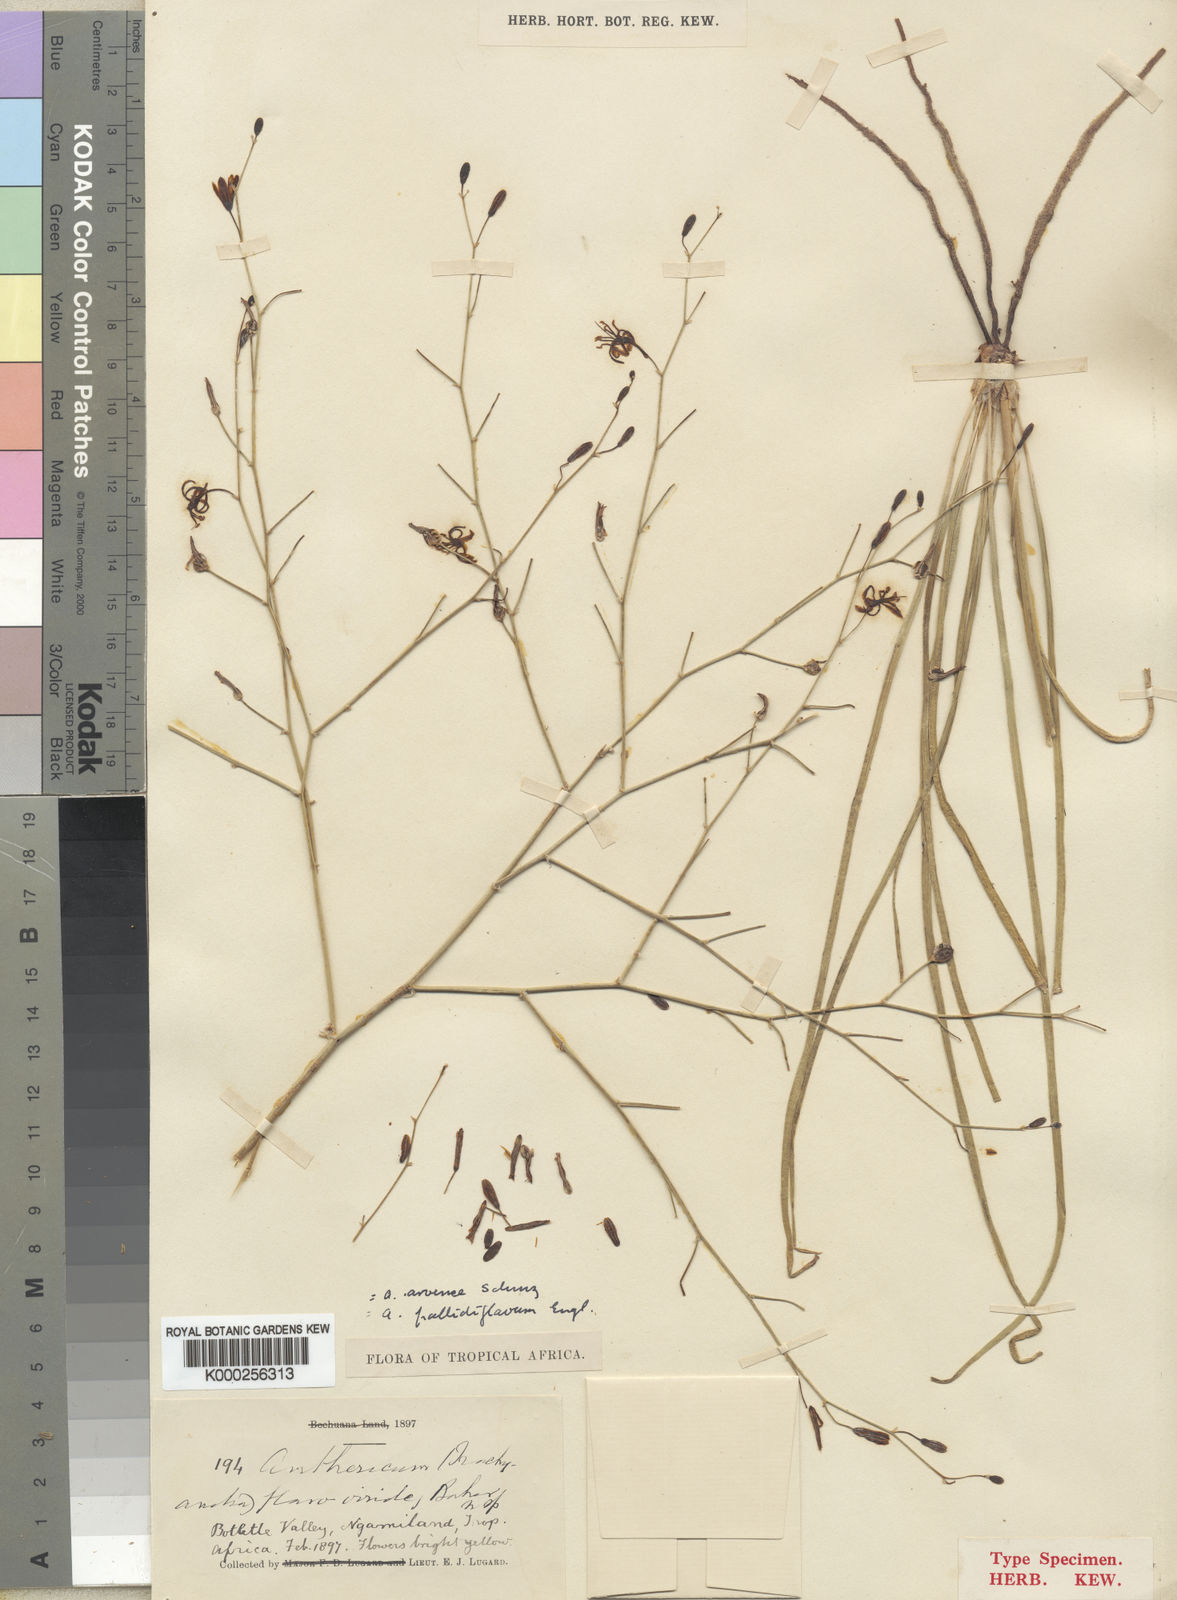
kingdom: Plantae
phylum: Tracheophyta
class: Liliopsida
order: Asparagales
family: Asphodelaceae
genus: Trachyandra
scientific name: Trachyandra arvensis
